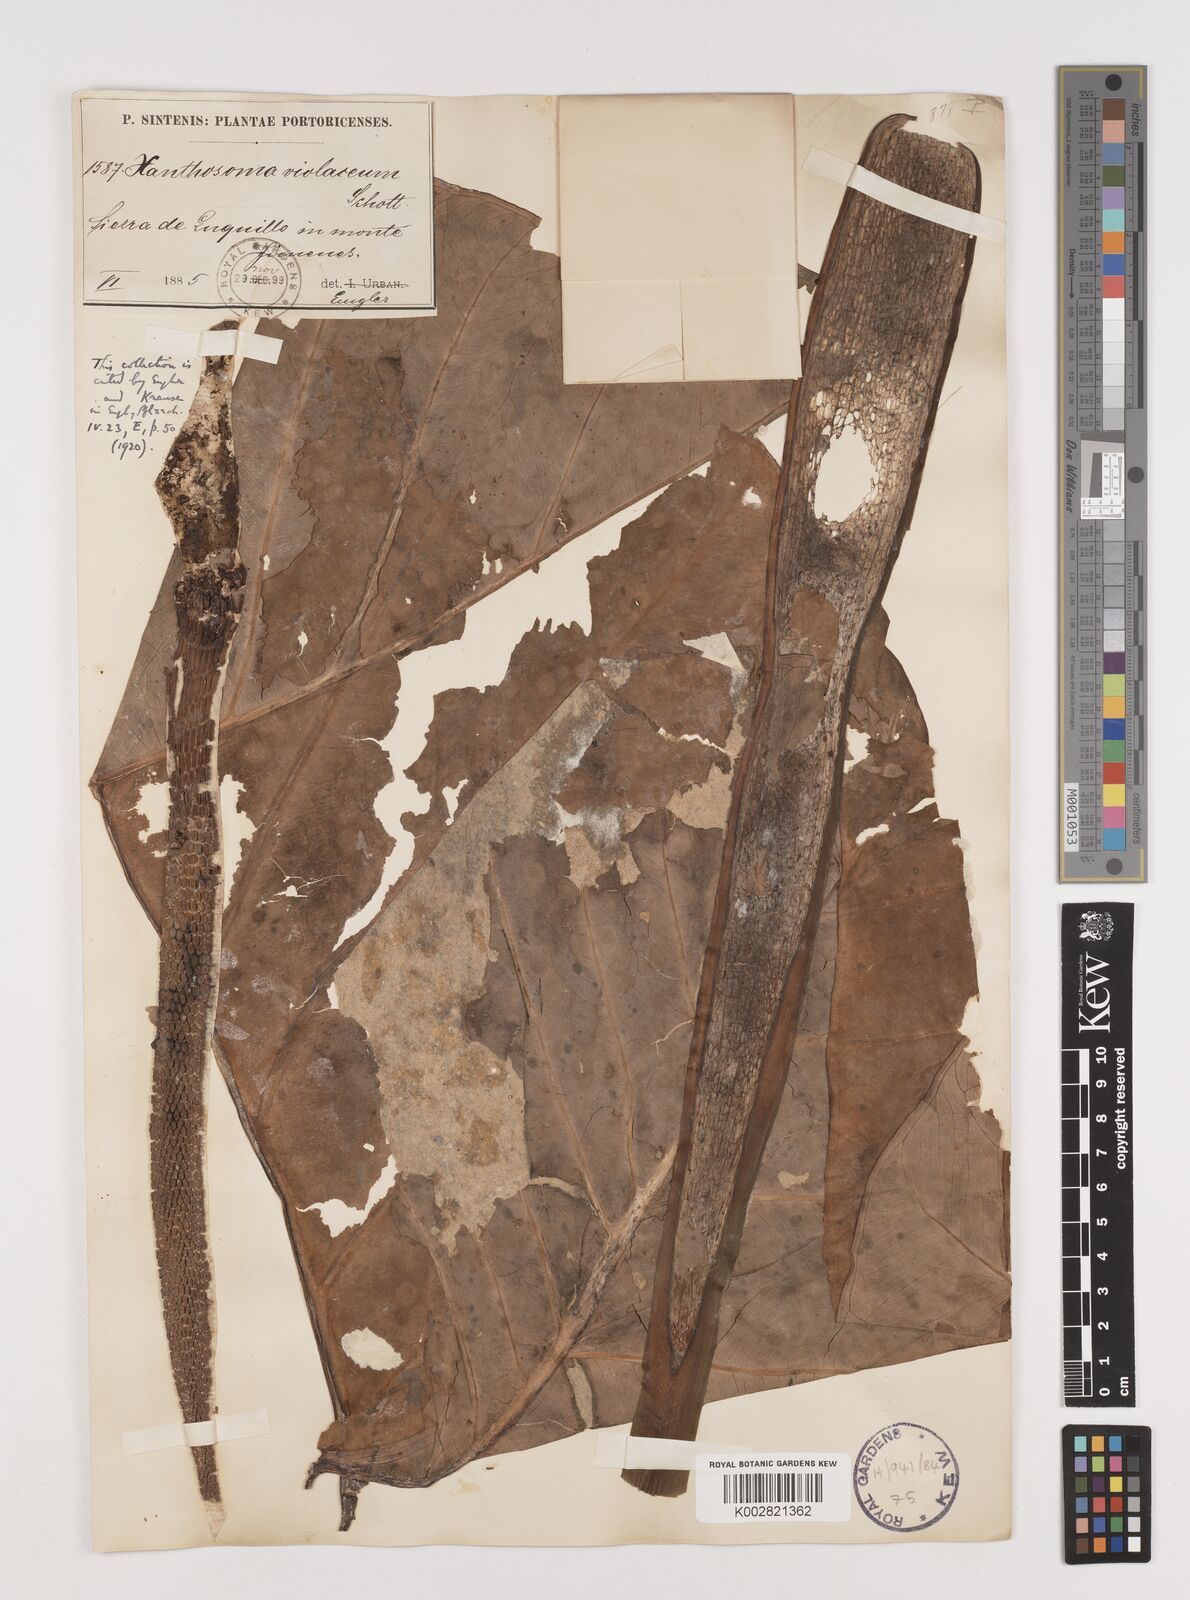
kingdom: Plantae
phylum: Tracheophyta
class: Liliopsida
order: Alismatales
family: Araceae
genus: Xanthosoma
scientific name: Xanthosoma sagittifolium
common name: Arrowleaf elephant's ear
